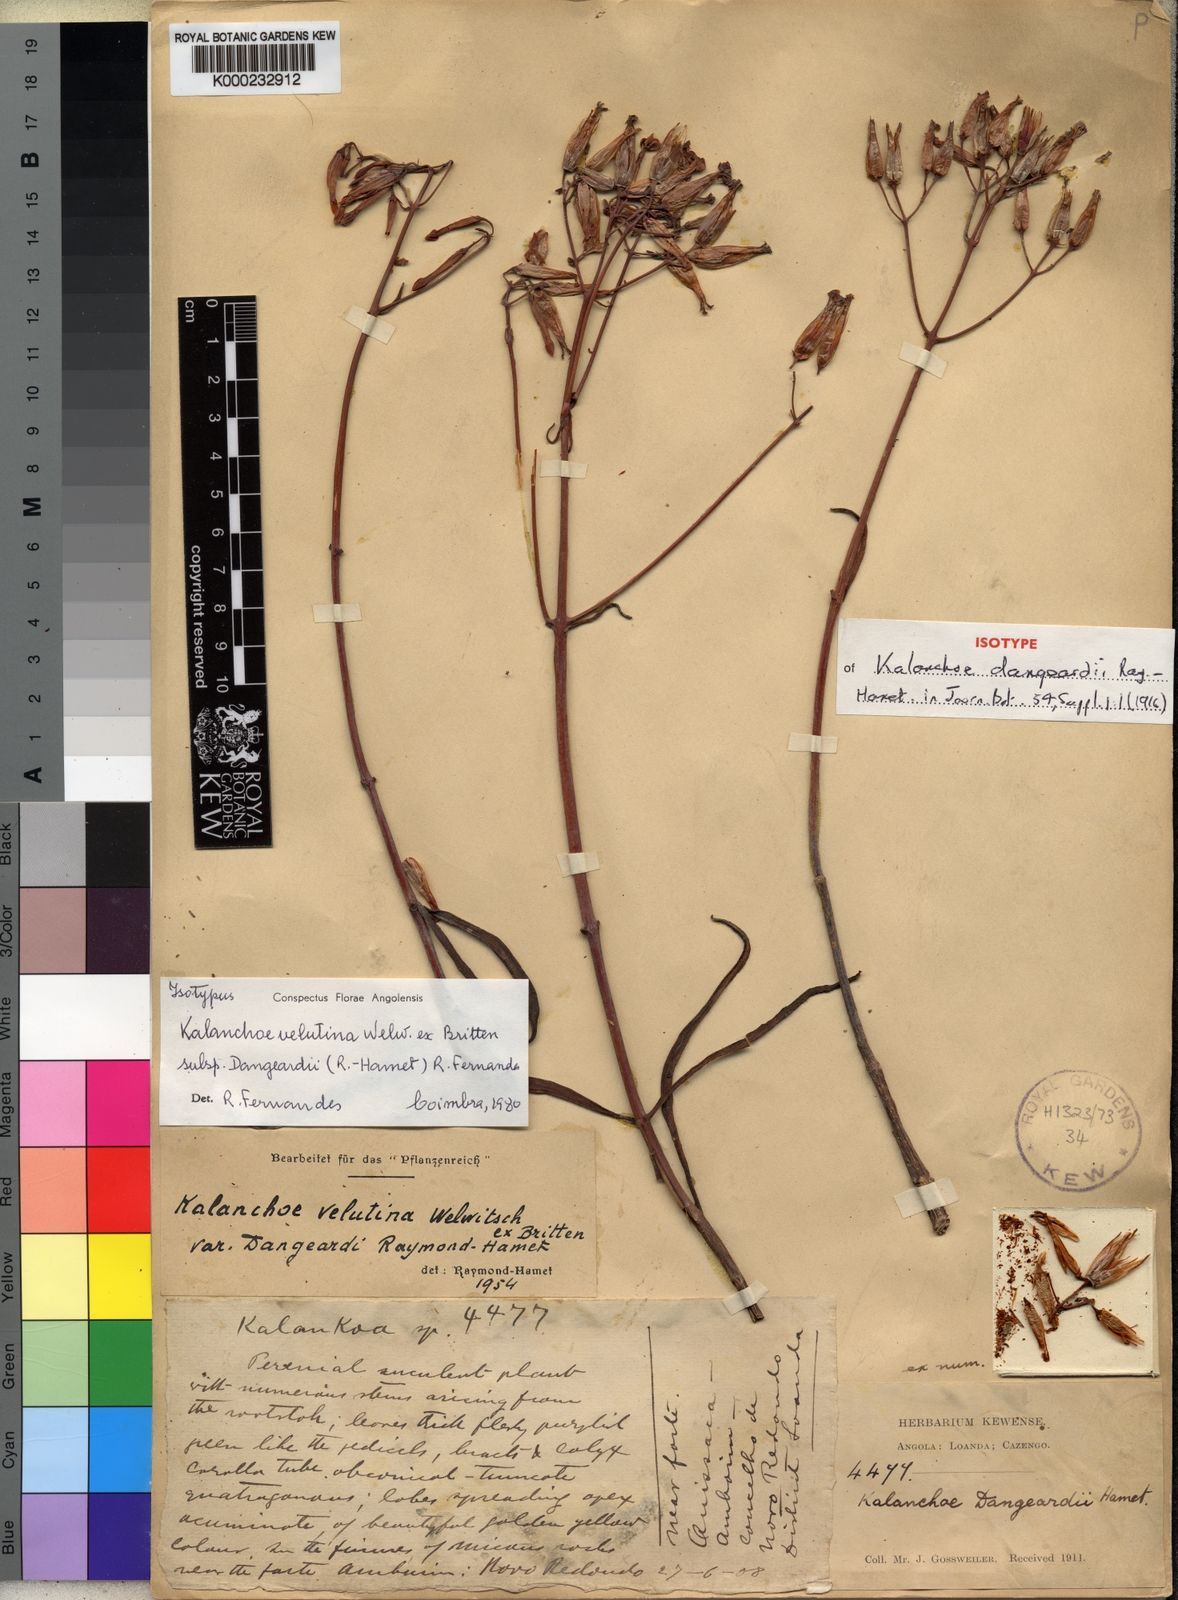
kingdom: Plantae
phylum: Tracheophyta
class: Magnoliopsida
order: Saxifragales
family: Crassulaceae
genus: Kalanchoe
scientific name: Kalanchoe velutina
